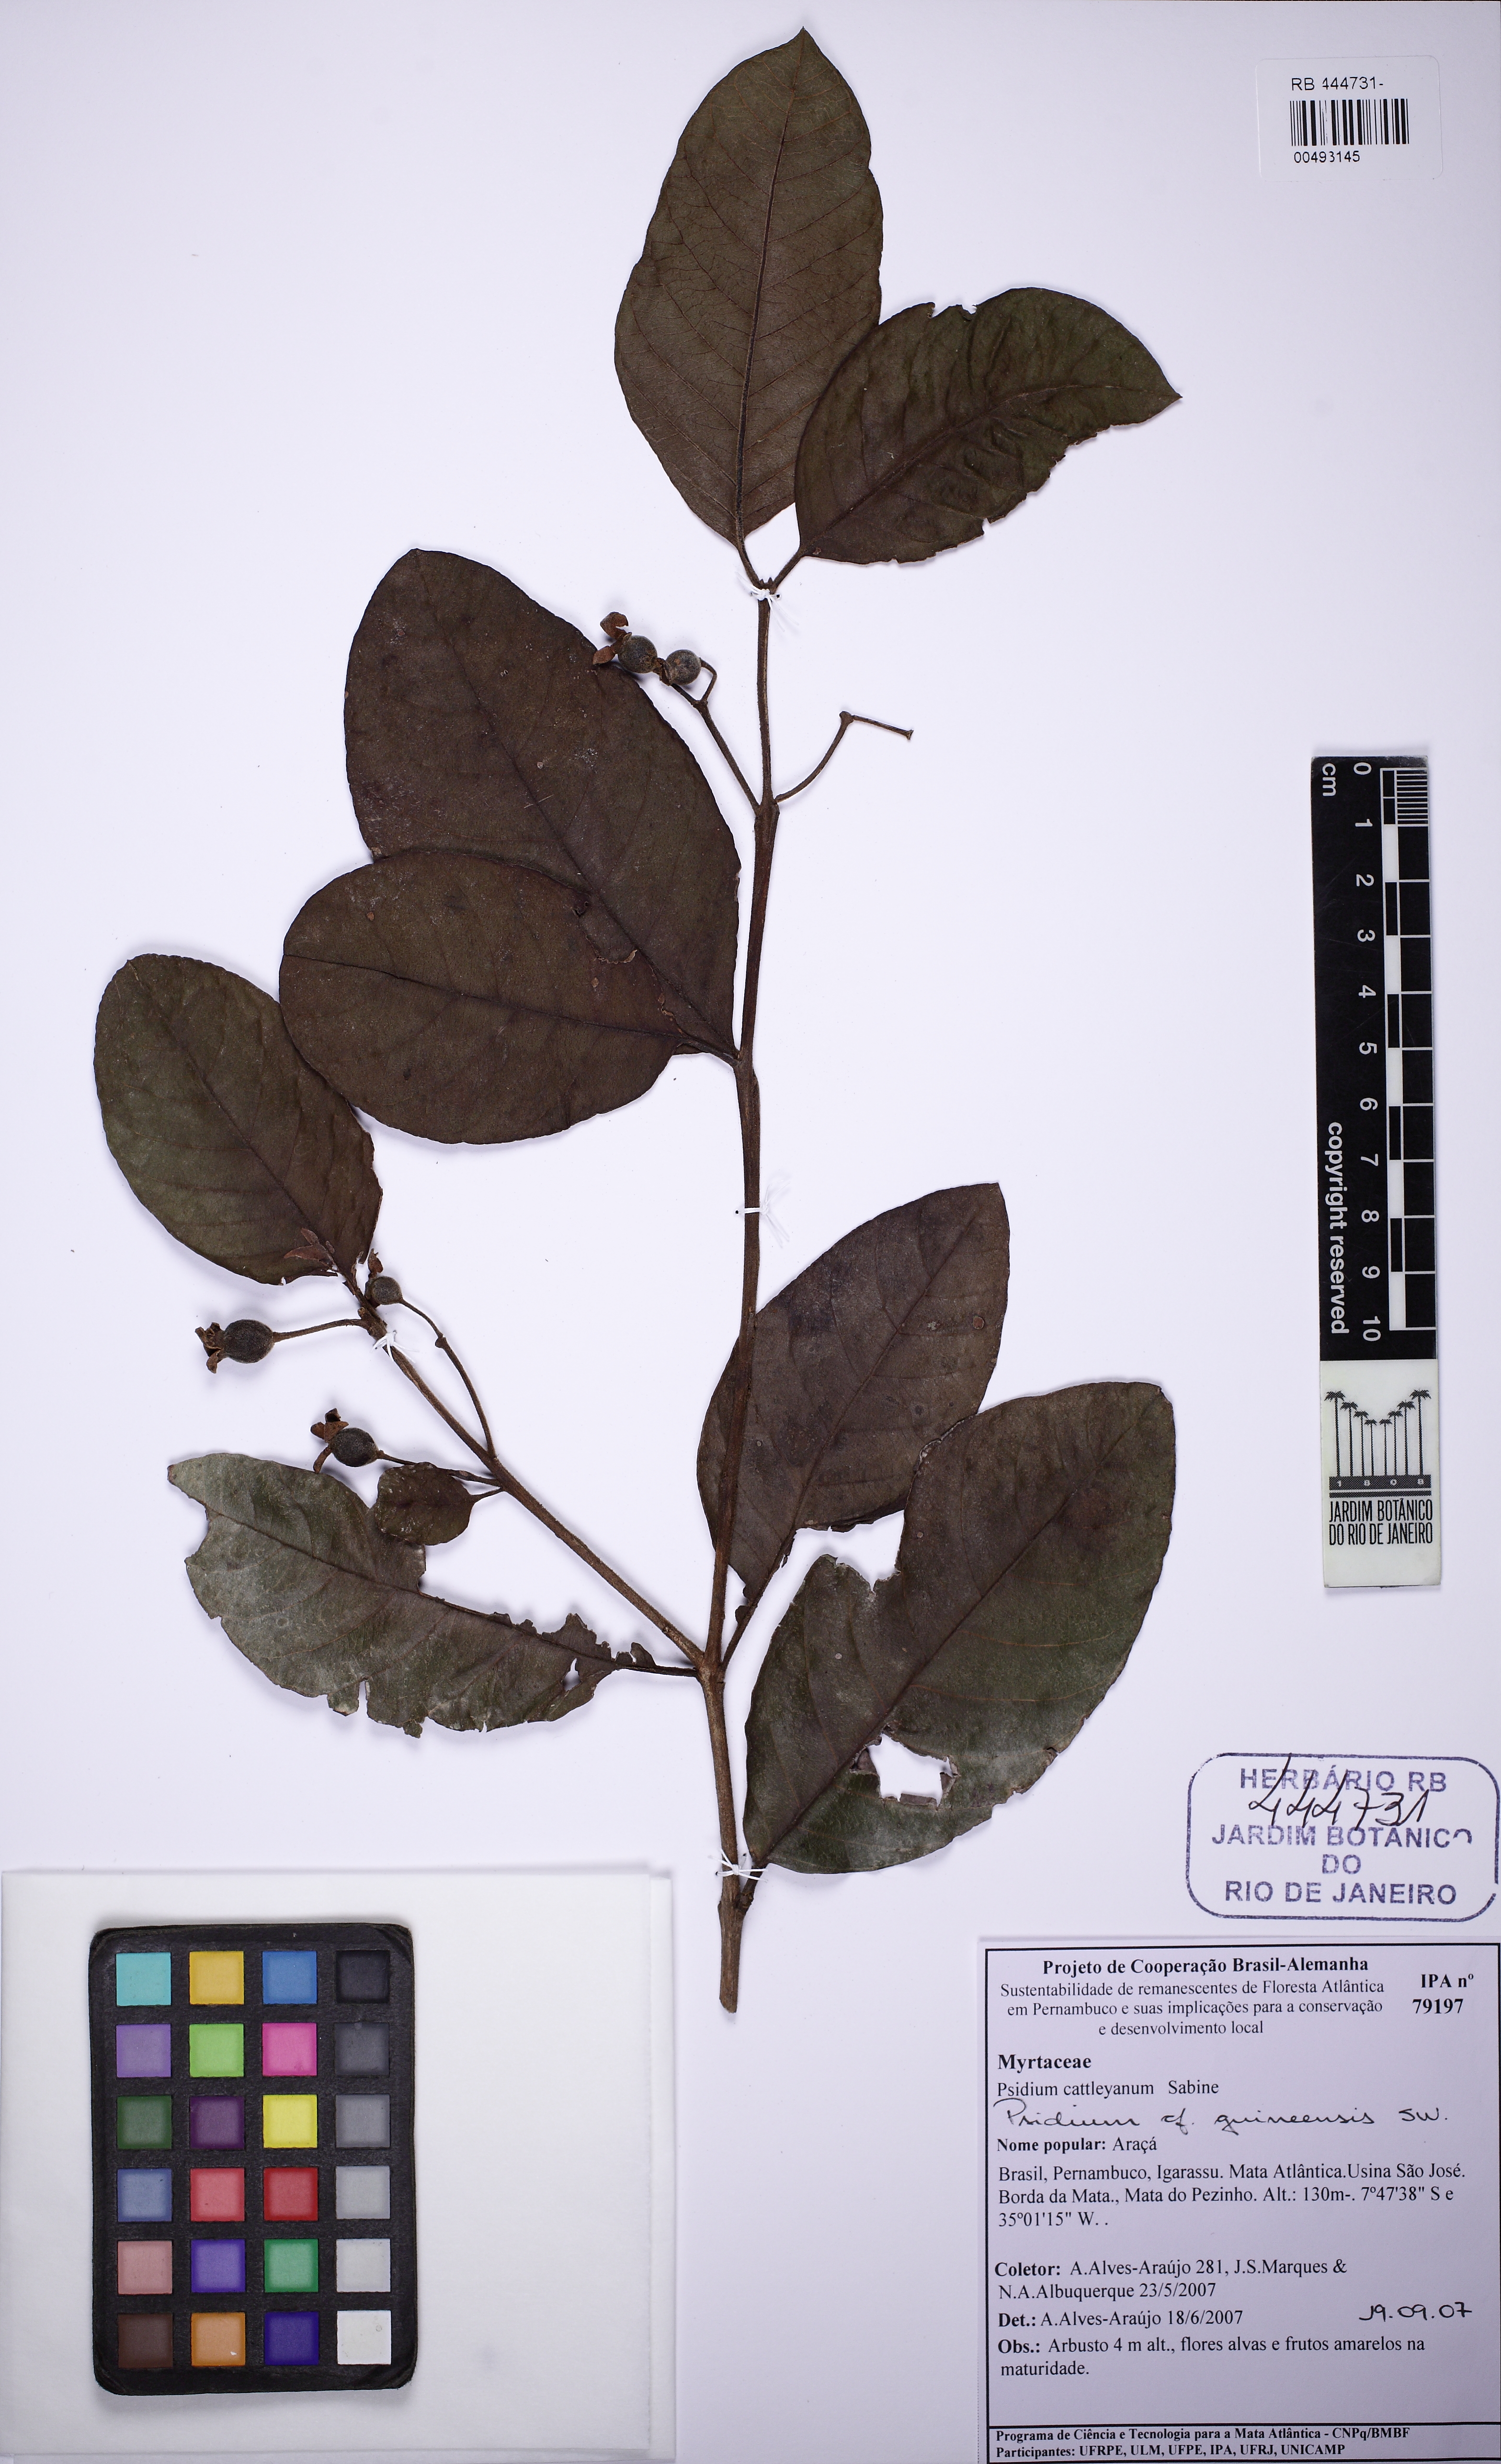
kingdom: Plantae
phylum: Tracheophyta
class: Magnoliopsida
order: Myrtales
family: Myrtaceae
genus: Psidium
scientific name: Psidium guineense
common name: Brazilian guava
